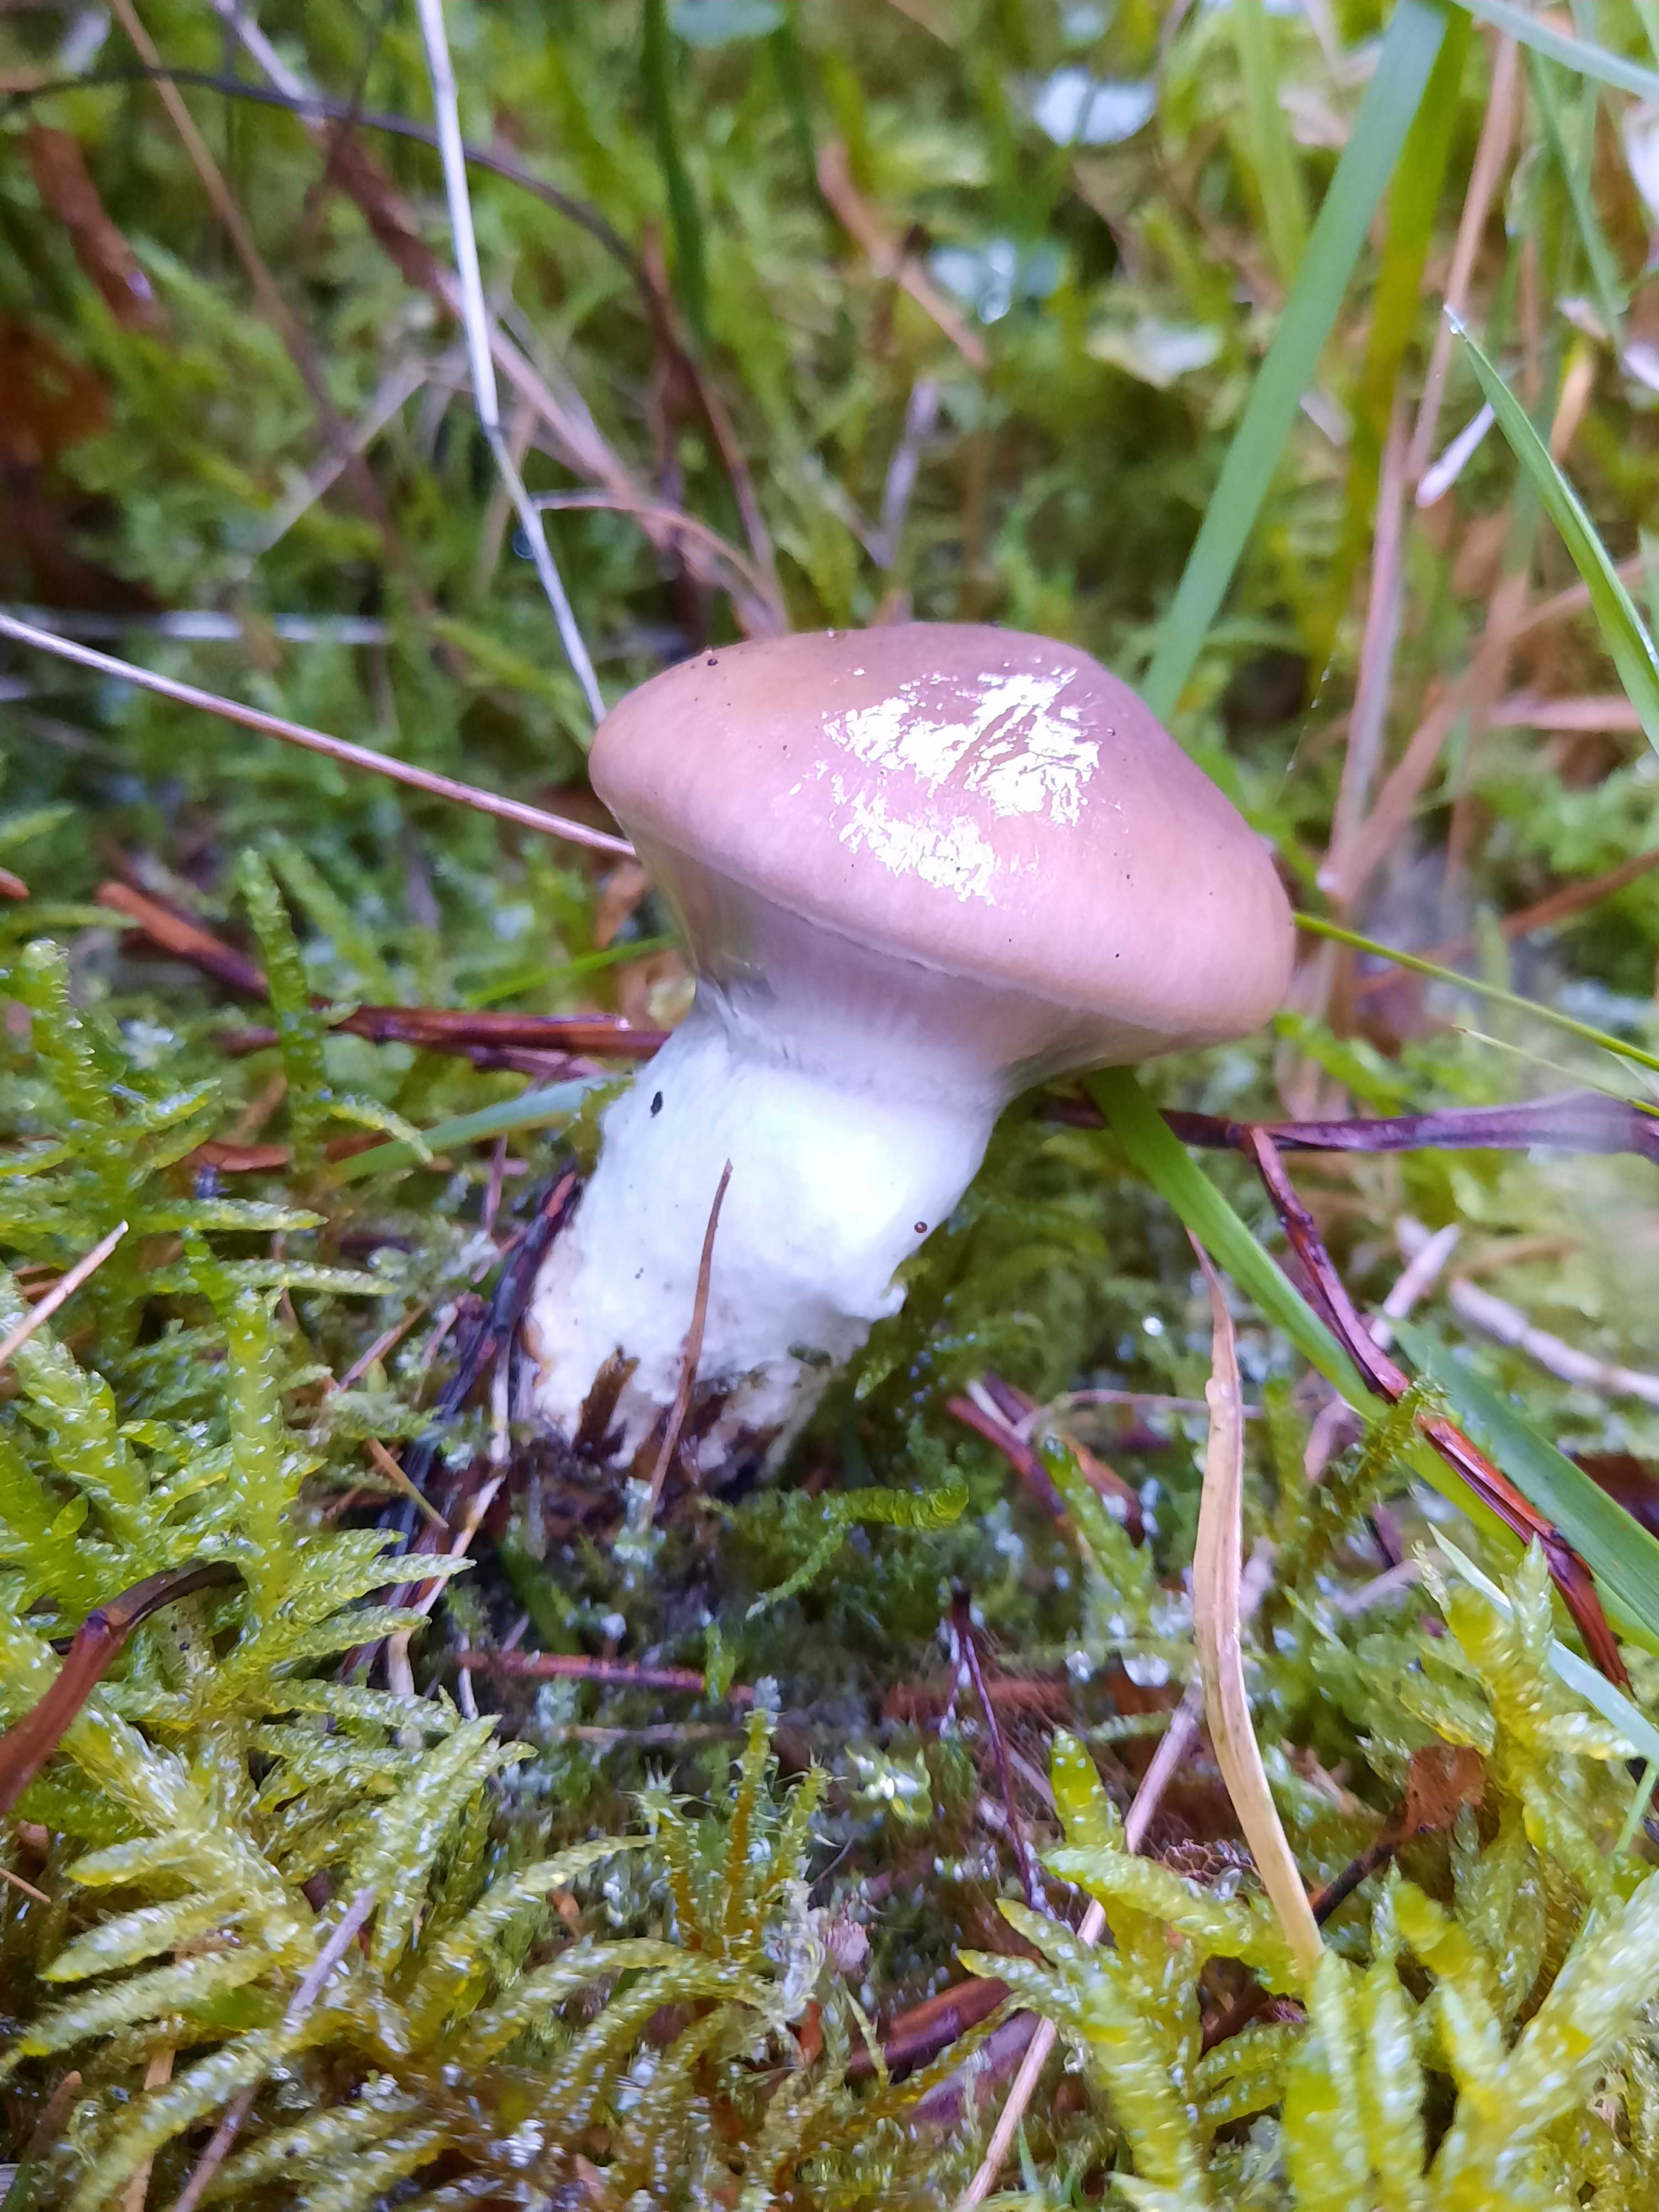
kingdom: Fungi
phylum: Basidiomycota
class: Agaricomycetes
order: Boletales
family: Gomphidiaceae
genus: Gomphidius
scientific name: Gomphidius glutinosus
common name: grå slimslør
